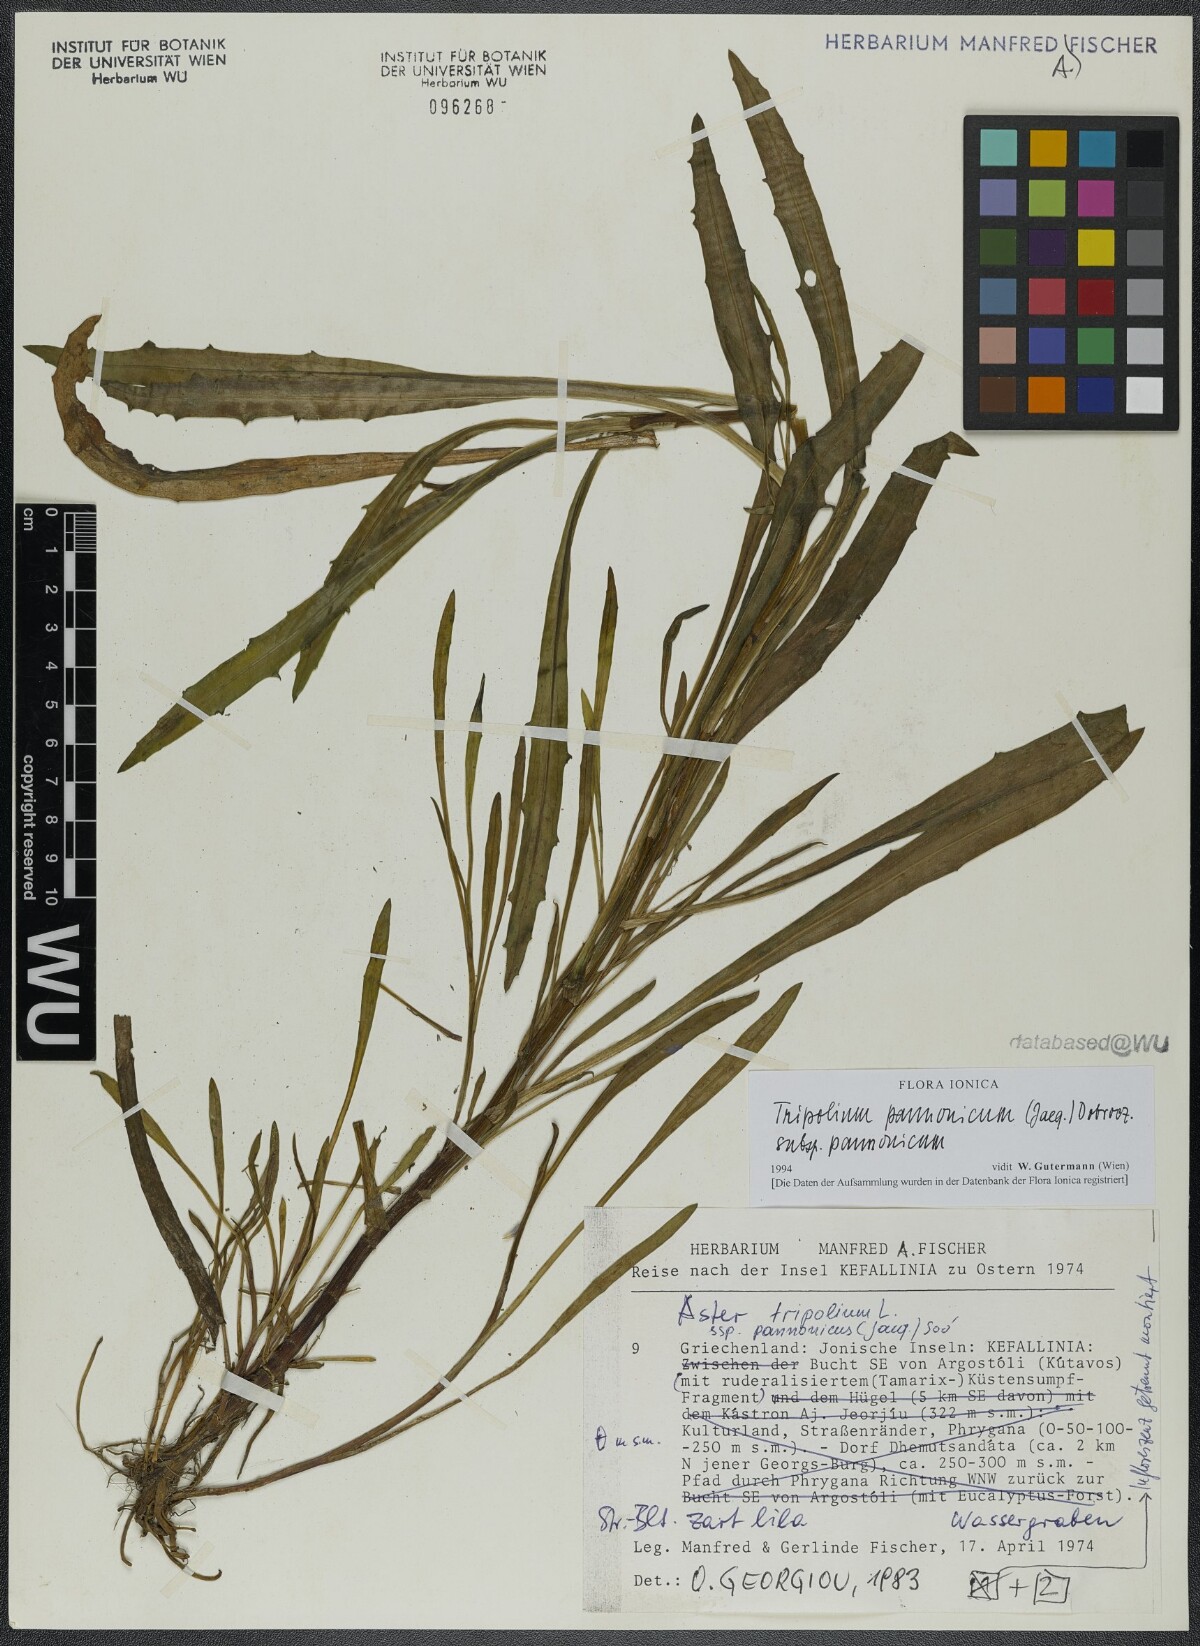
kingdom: Plantae
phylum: Tracheophyta
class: Magnoliopsida
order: Asterales
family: Asteraceae
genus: Tripolium
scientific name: Tripolium pannonicum
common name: Sea aster
